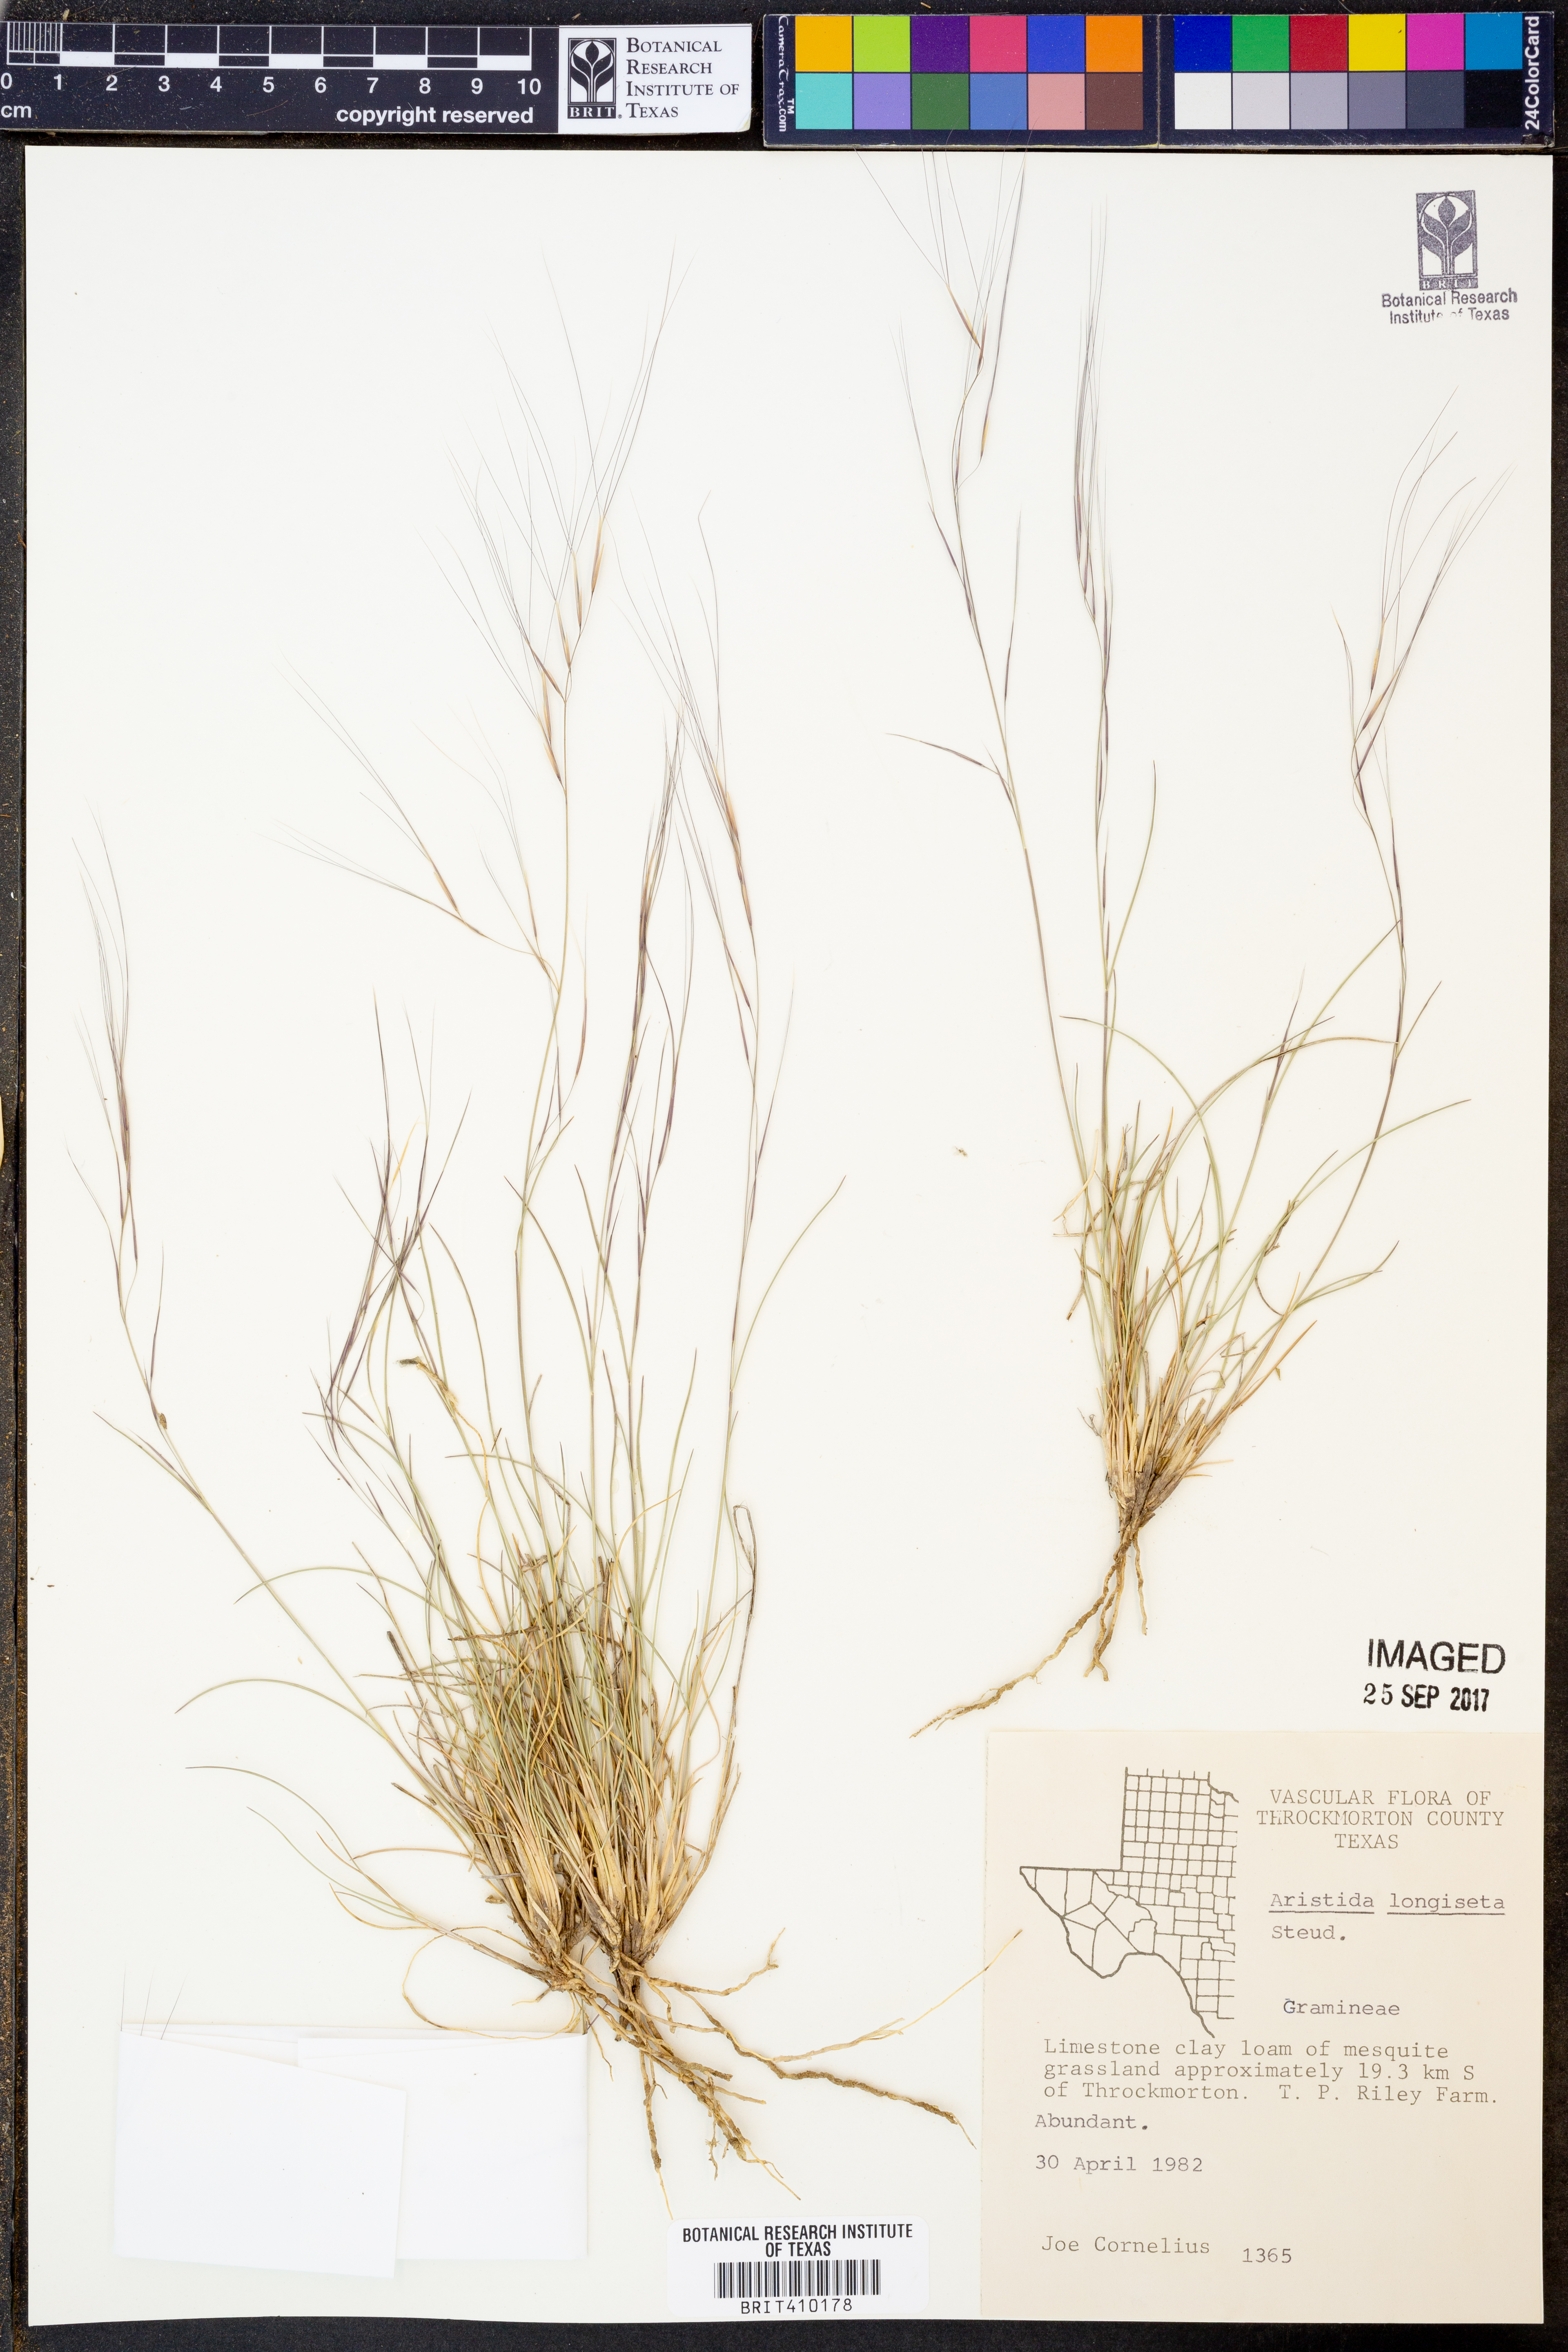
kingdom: Plantae
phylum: Tracheophyta
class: Liliopsida
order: Poales
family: Poaceae
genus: Aristida
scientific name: Aristida longiseta
